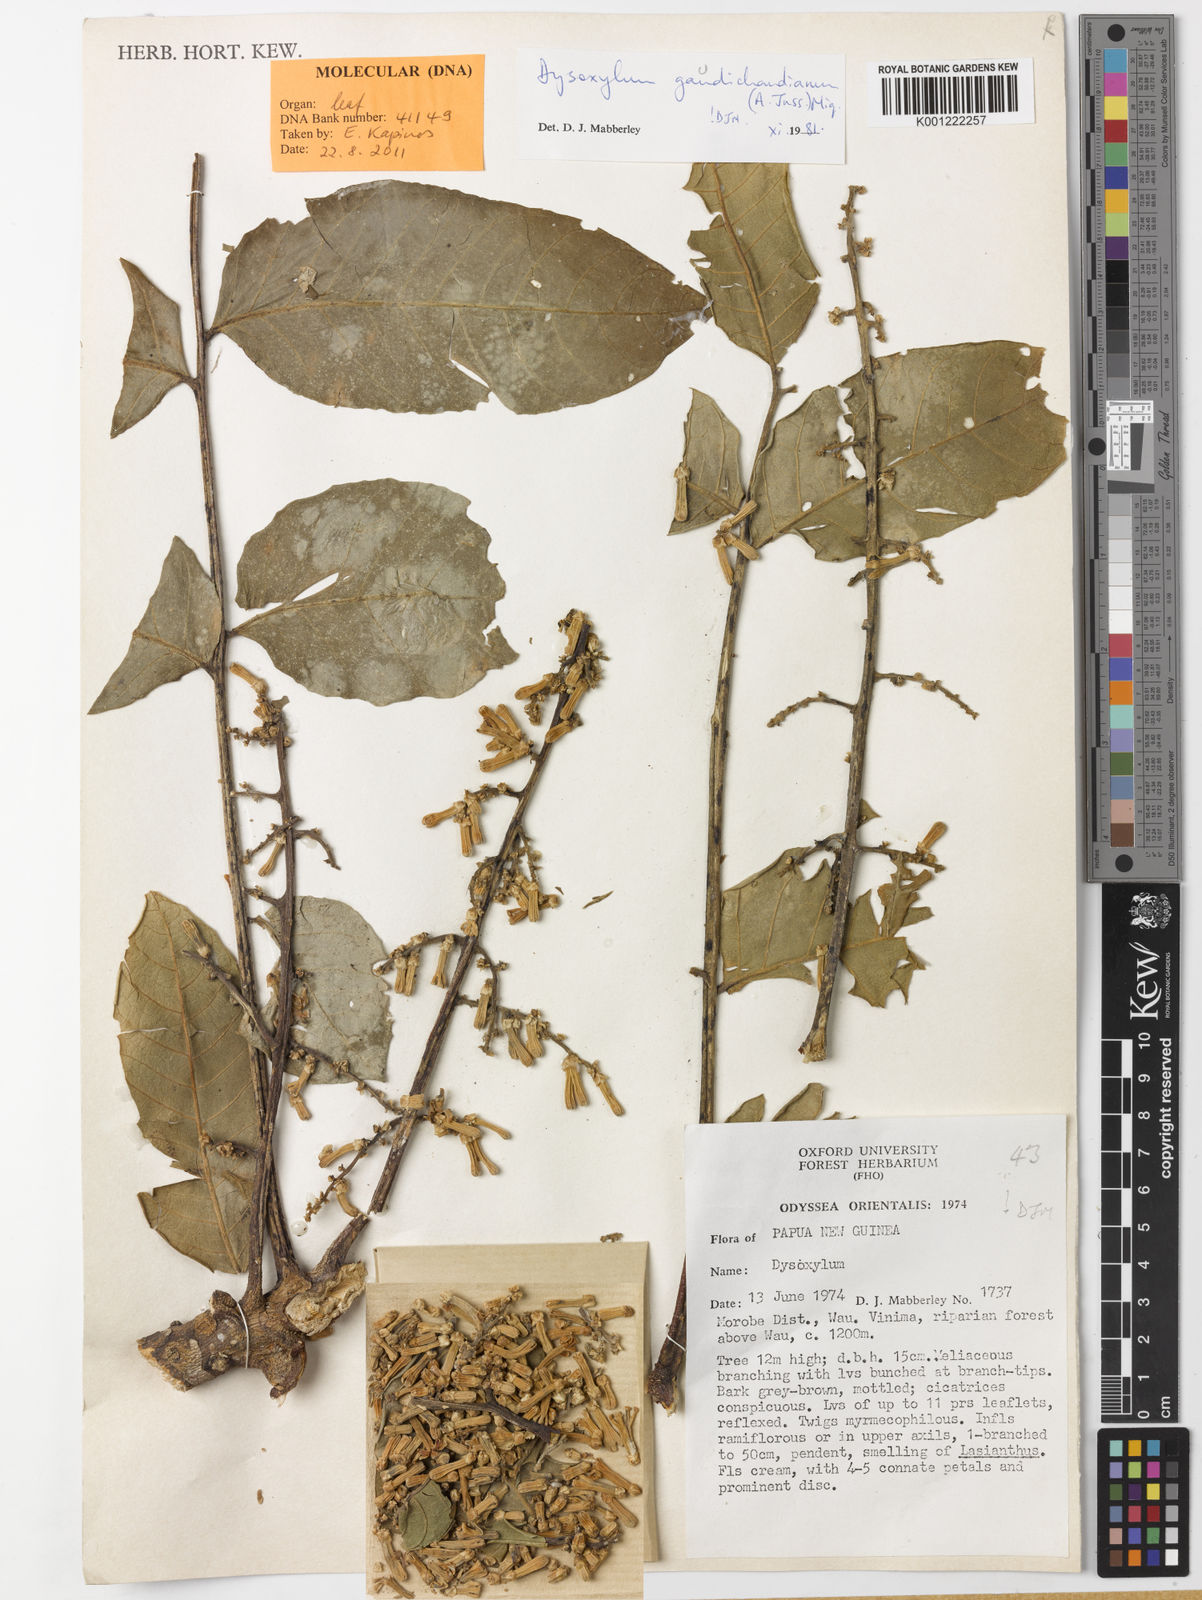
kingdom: Plantae
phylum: Tracheophyta
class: Magnoliopsida
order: Sapindales
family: Meliaceae
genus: Didymocheton
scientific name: Didymocheton gaudichaudianus
